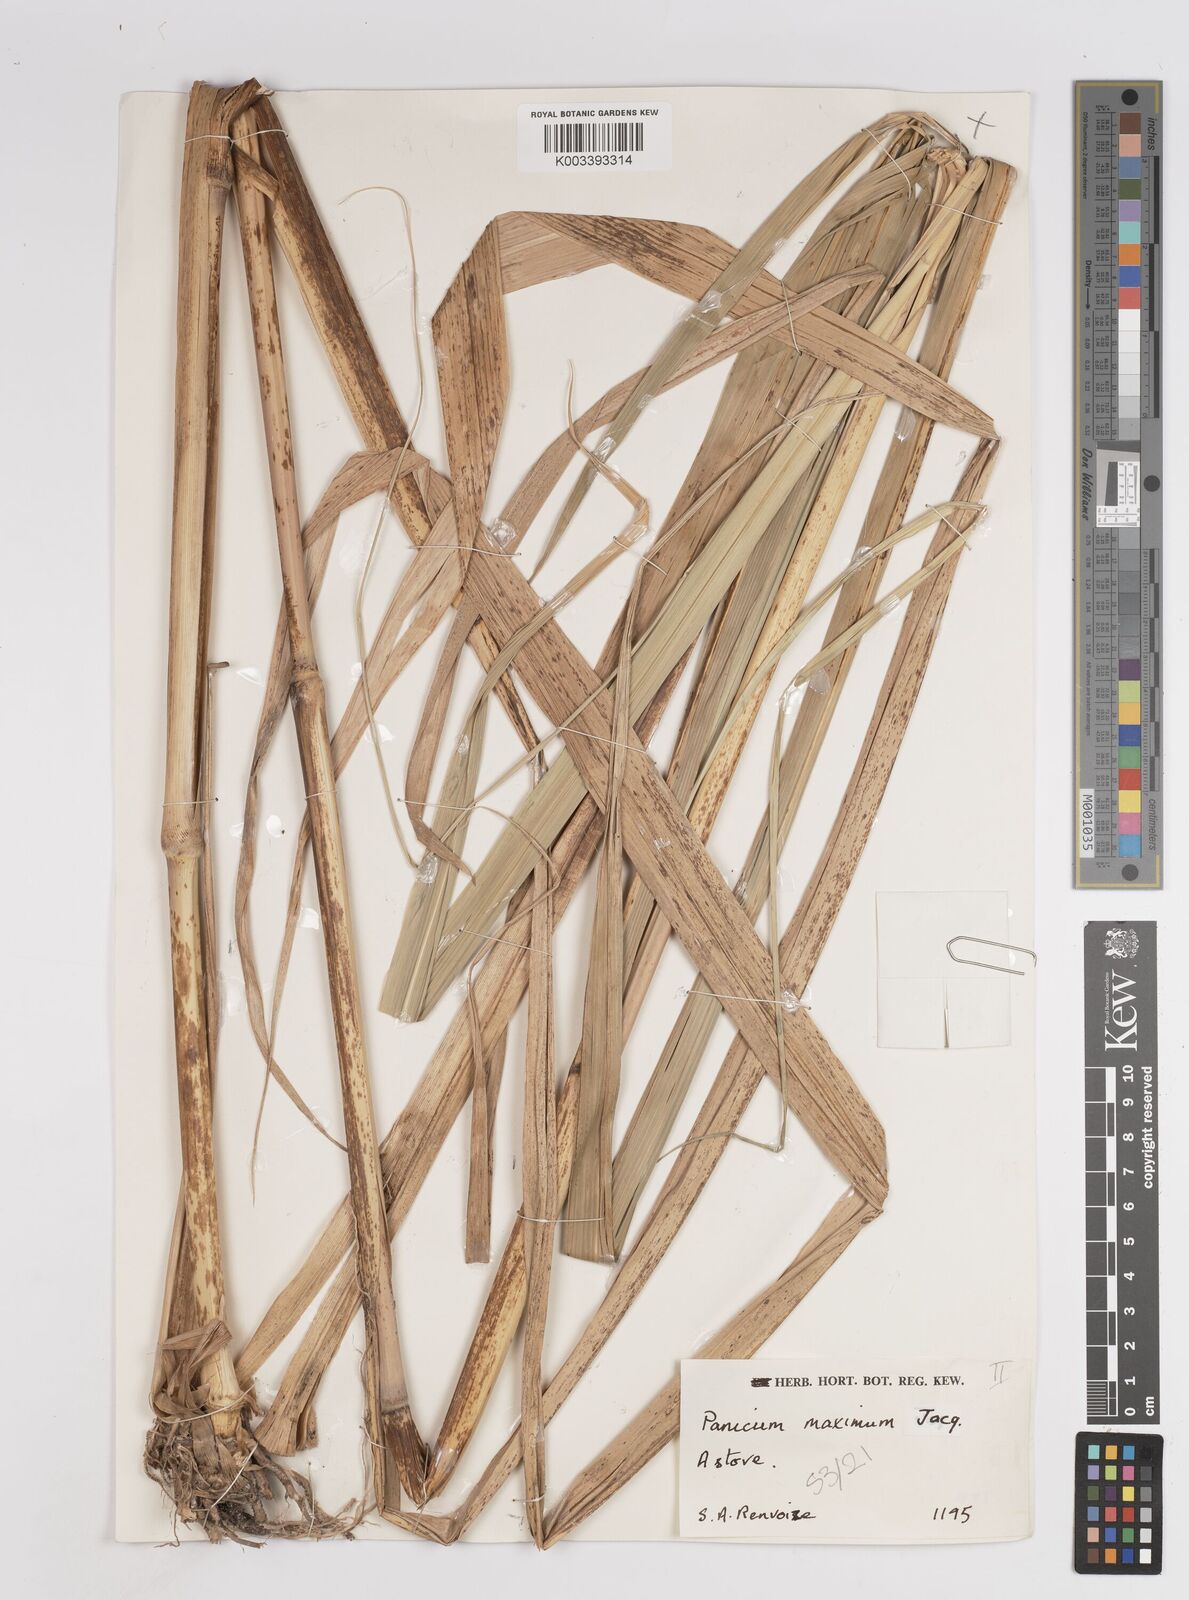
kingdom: Plantae
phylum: Tracheophyta
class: Liliopsida
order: Poales
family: Poaceae
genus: Megathyrsus
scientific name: Megathyrsus maximus
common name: Guineagrass
